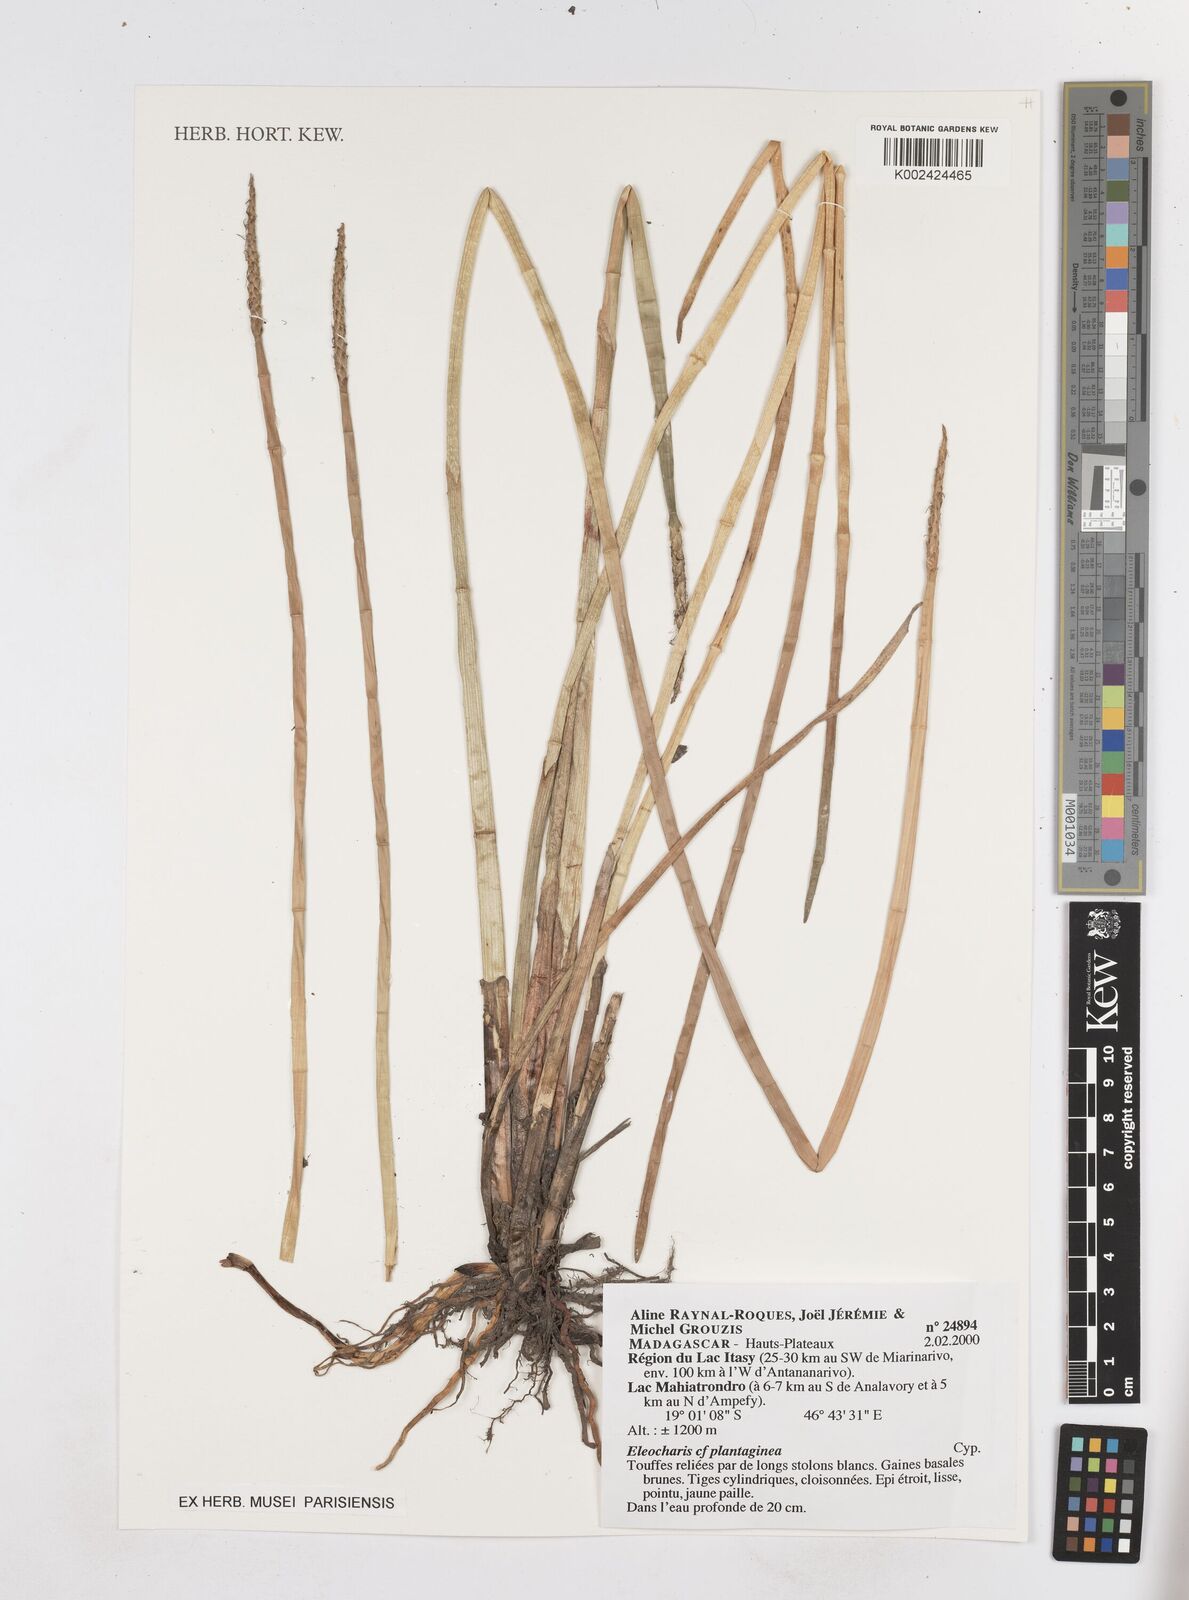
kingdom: Plantae
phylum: Tracheophyta
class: Liliopsida
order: Poales
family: Cyperaceae
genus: Eleocharis
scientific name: Eleocharis dulcis
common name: Chinese water chestnut
